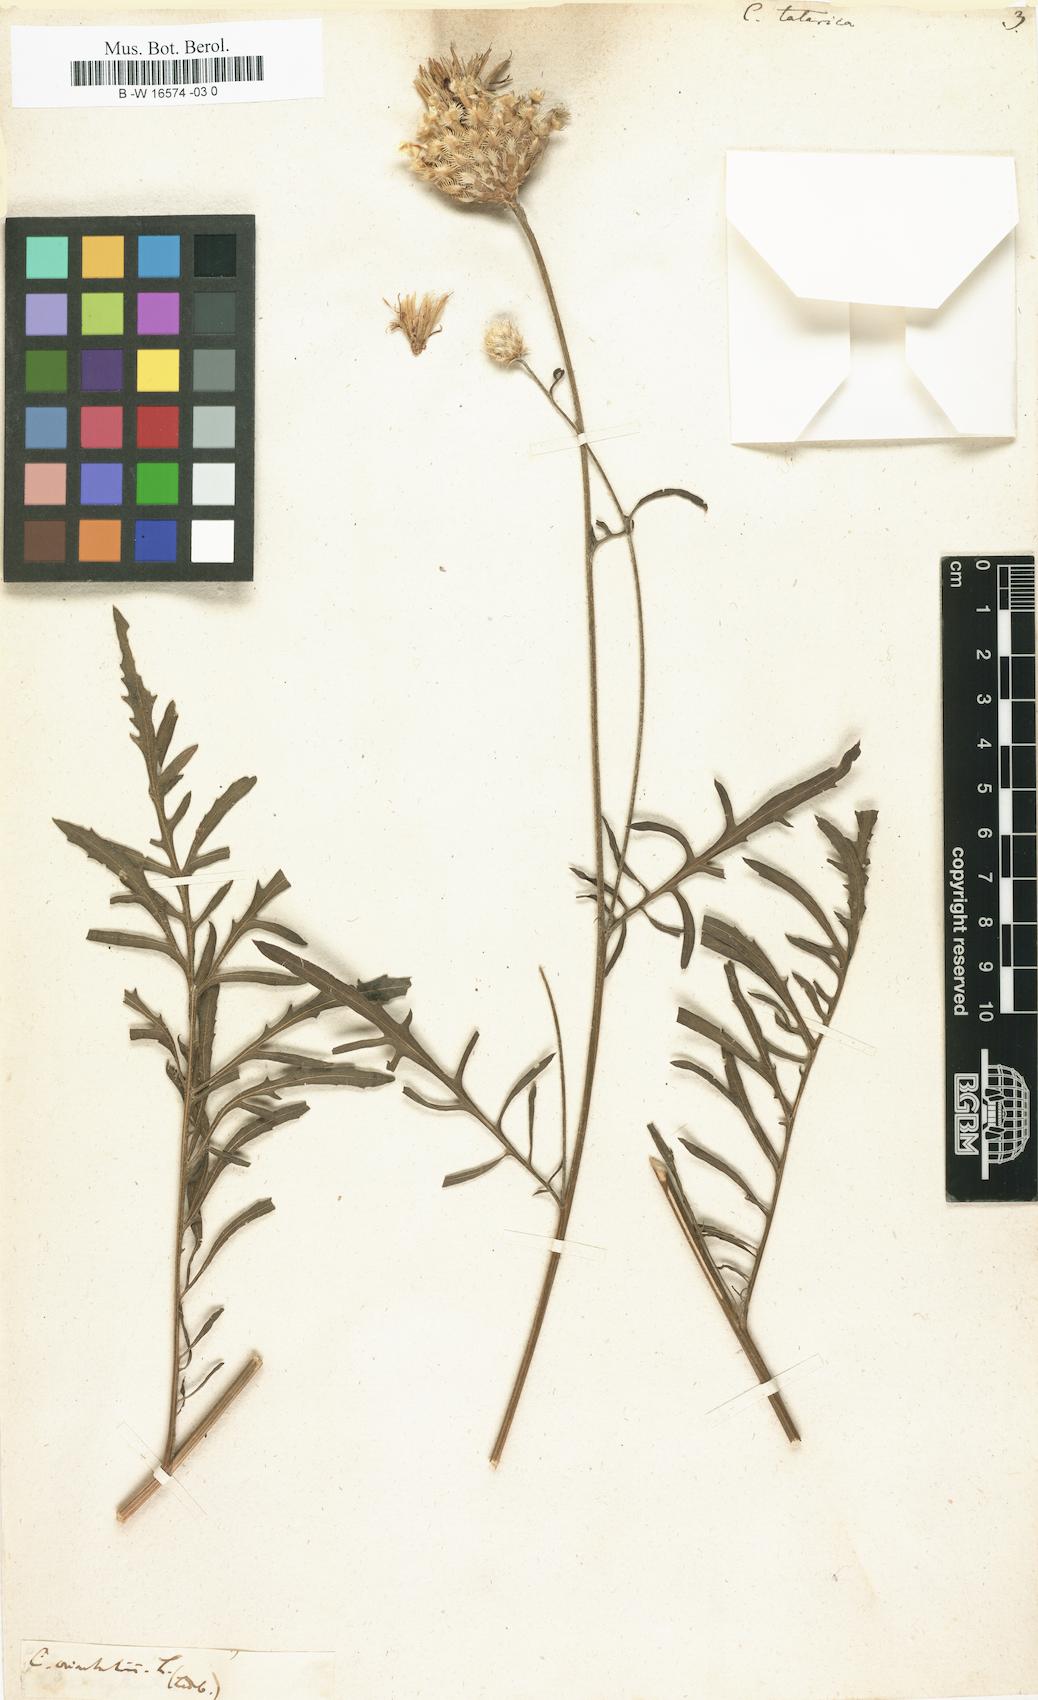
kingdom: Plantae
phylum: Tracheophyta
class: Magnoliopsida
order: Asterales
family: Asteraceae
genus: Centaurea
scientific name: Centaurea
